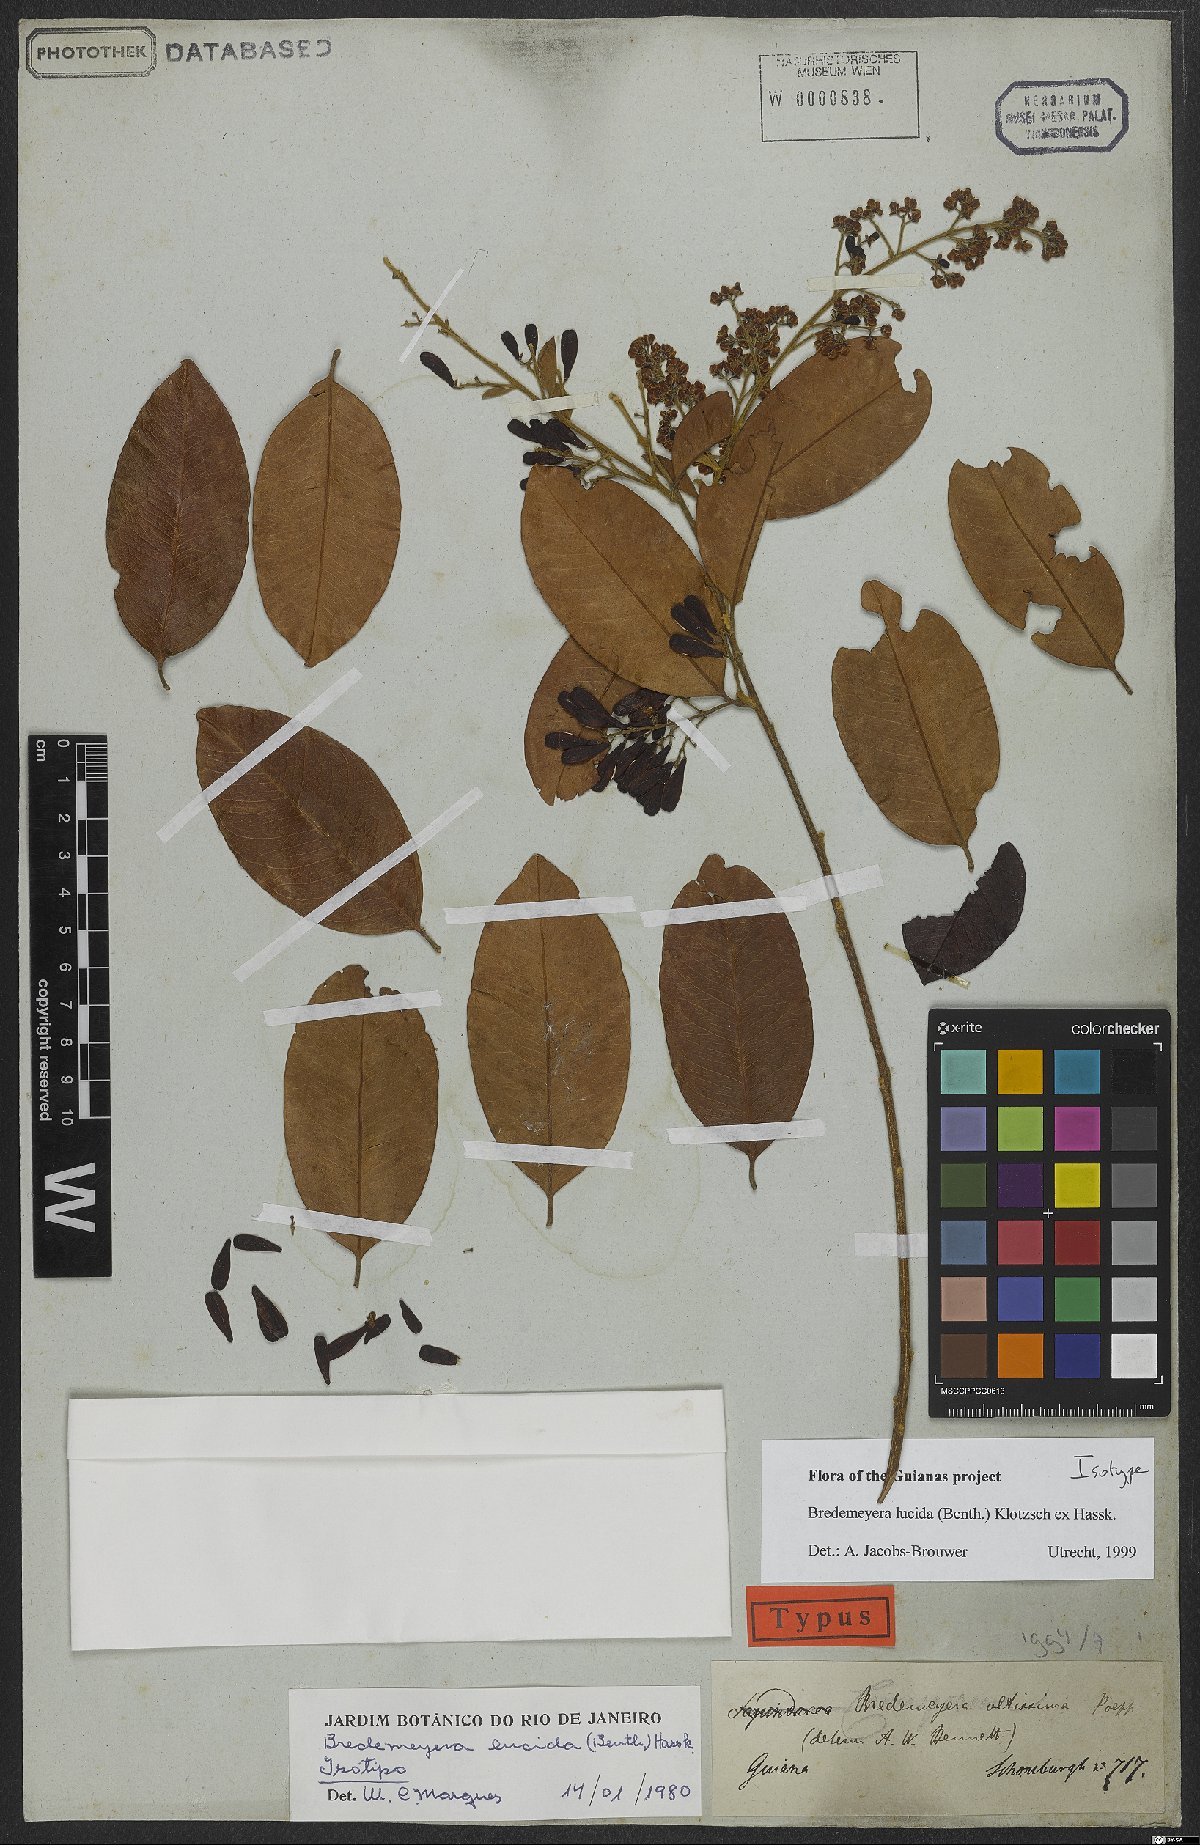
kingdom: Plantae
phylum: Tracheophyta
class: Magnoliopsida
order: Fabales
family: Polygalaceae
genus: Bredemeyera
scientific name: Bredemeyera lucida
